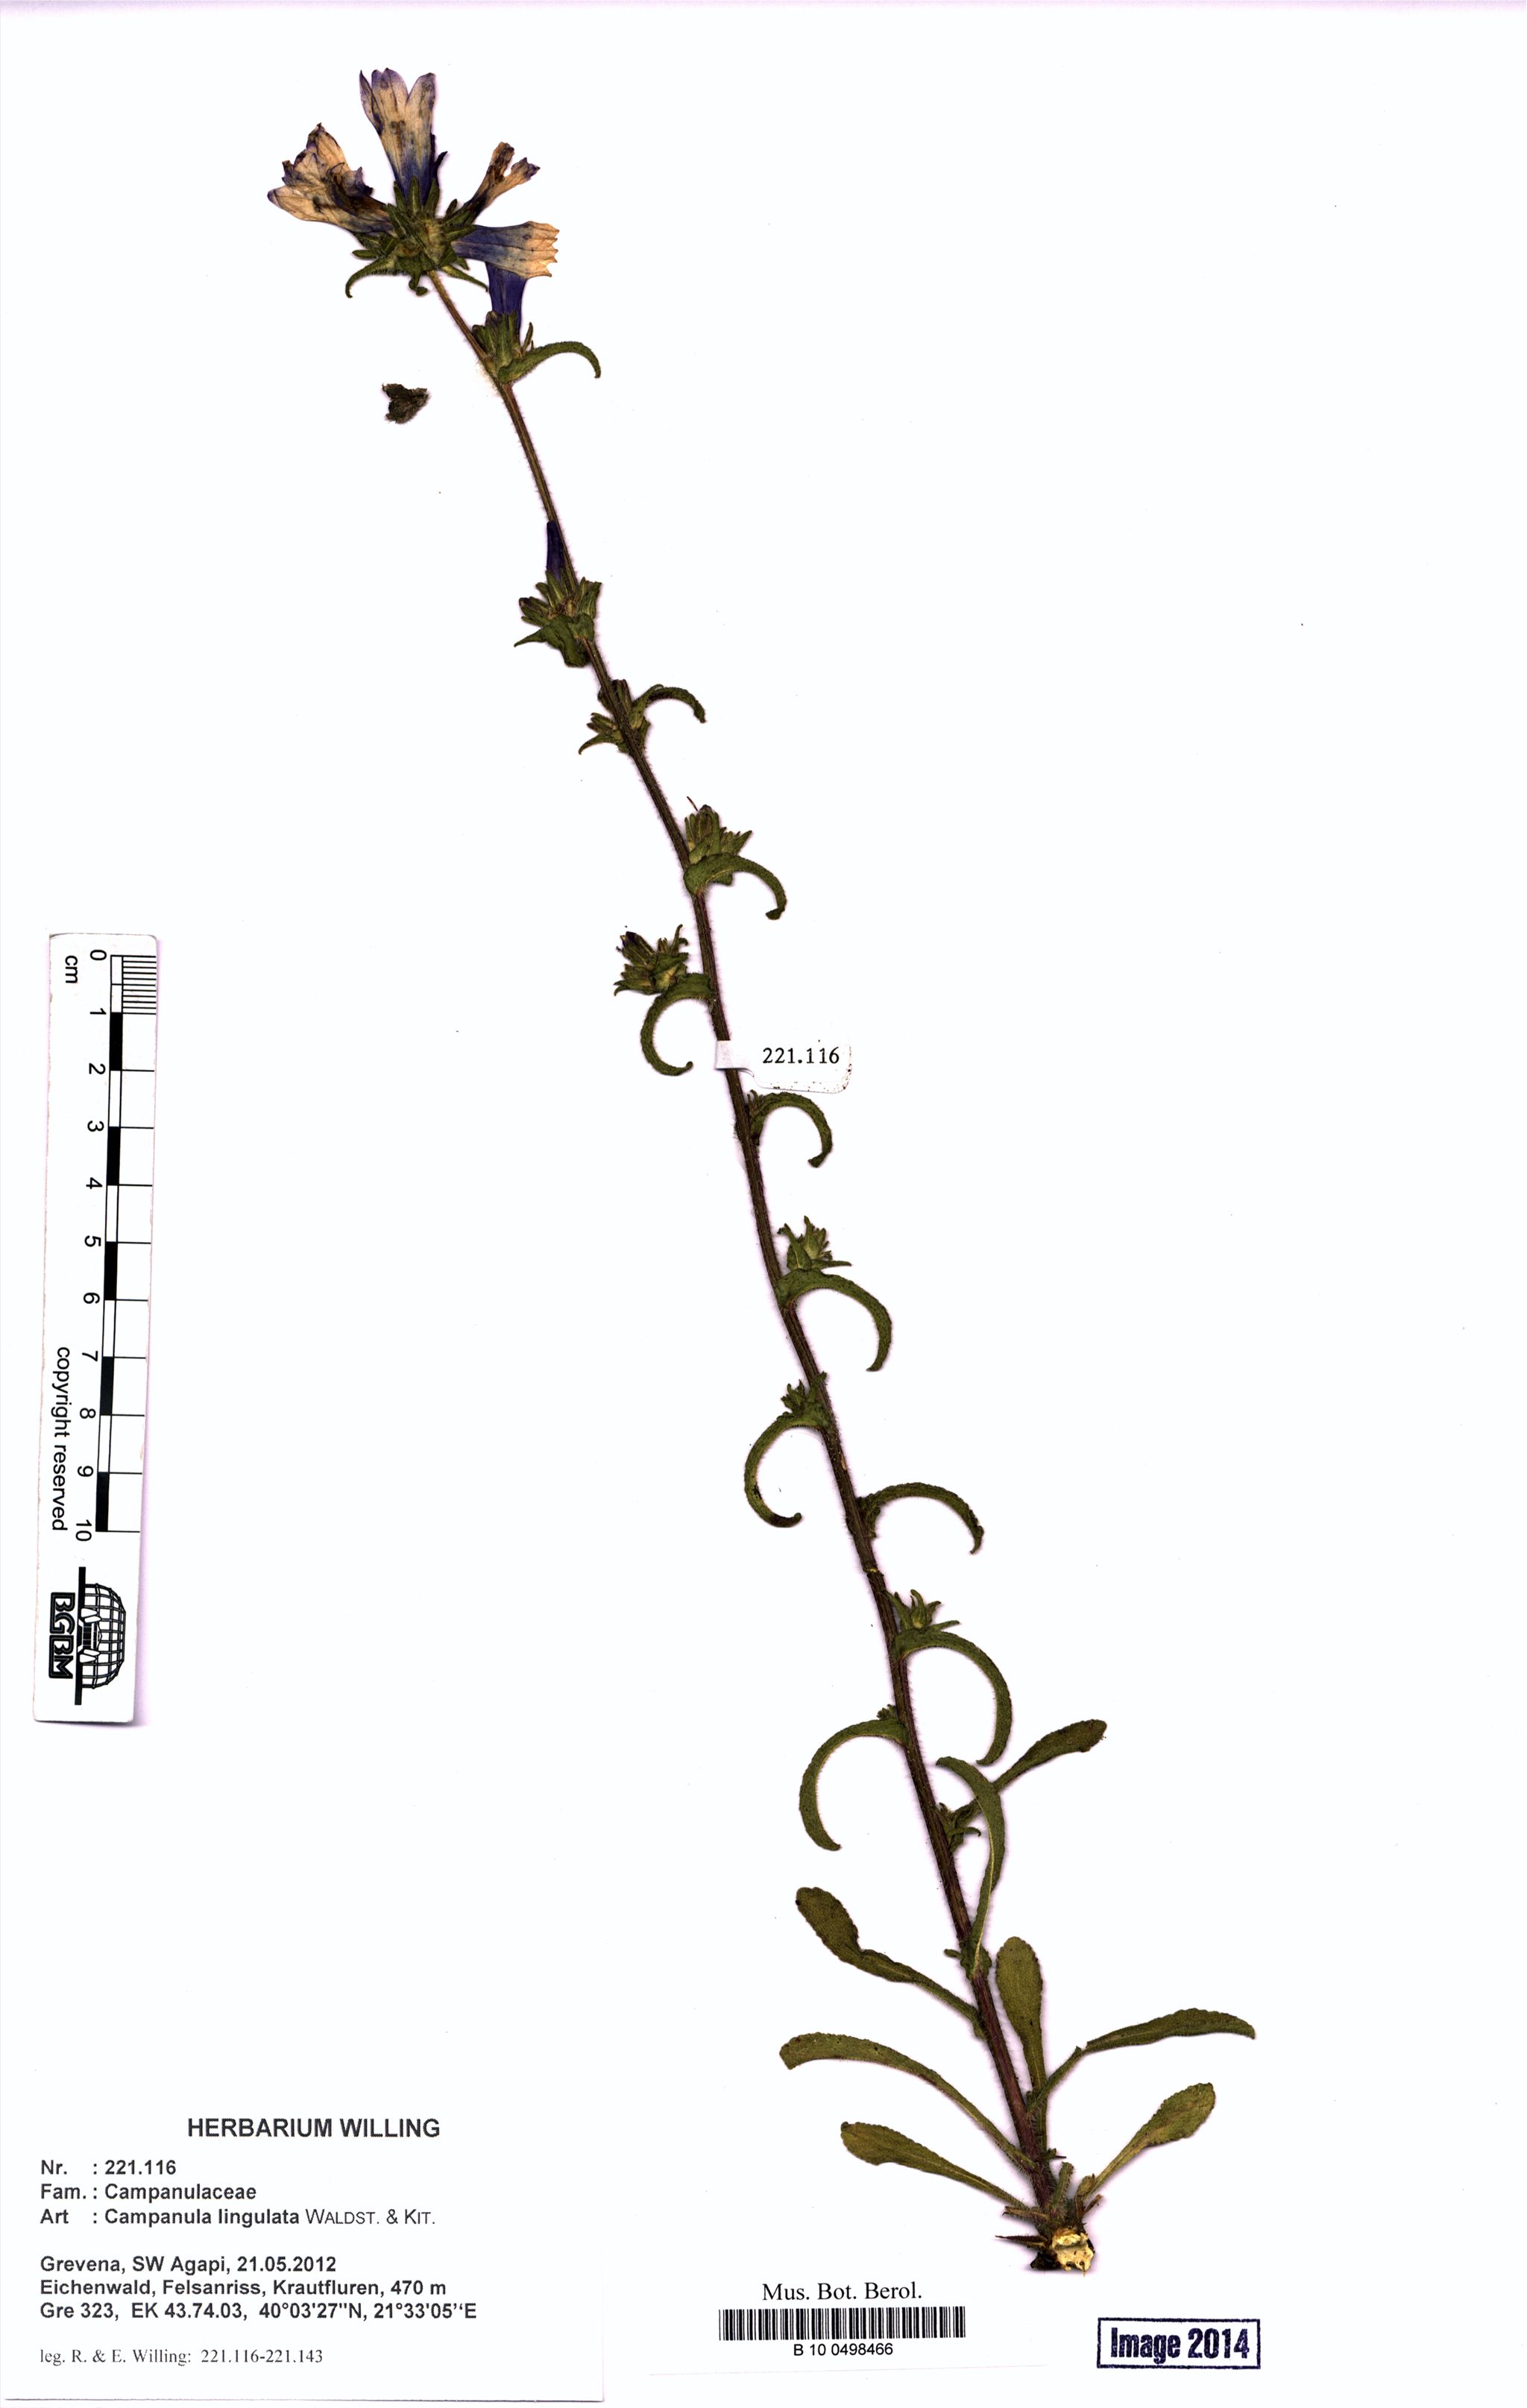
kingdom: Plantae
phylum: Tracheophyta
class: Magnoliopsida
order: Asterales
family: Campanulaceae
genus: Campanula
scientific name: Campanula lingulata
